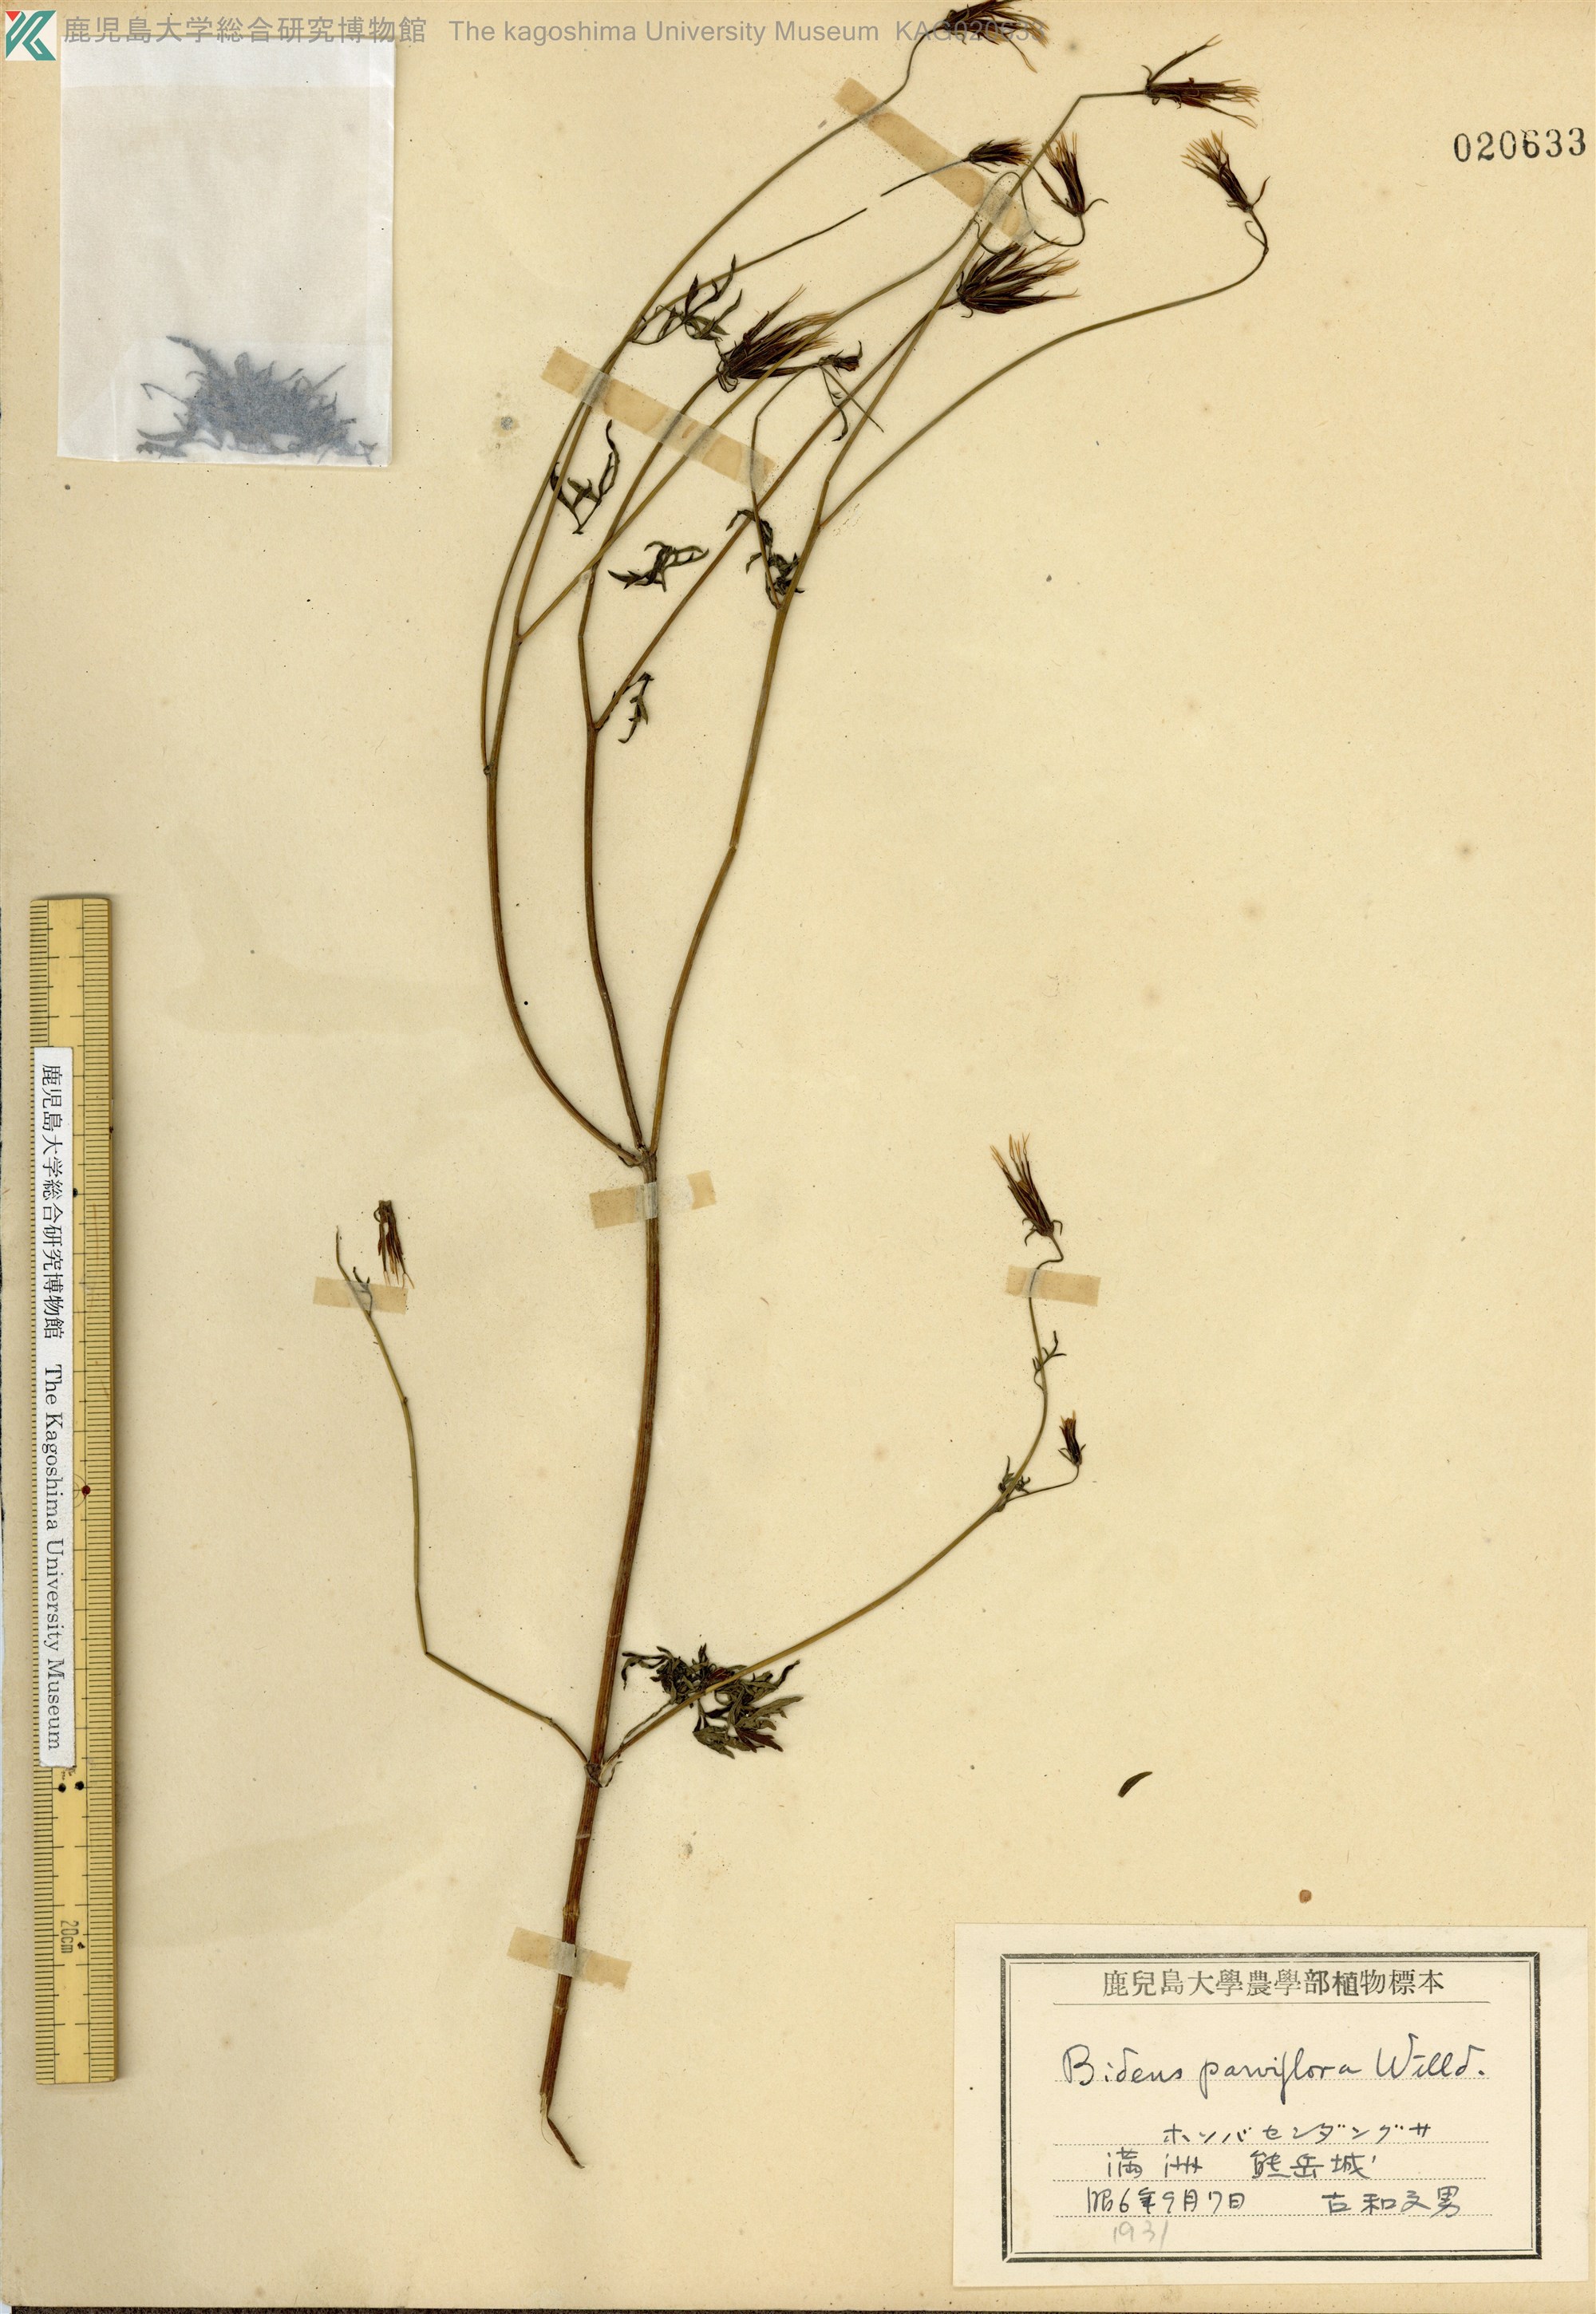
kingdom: Plantae
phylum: Tracheophyta
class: Magnoliopsida
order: Asterales
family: Asteraceae
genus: Bidens
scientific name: Bidens parviflora
